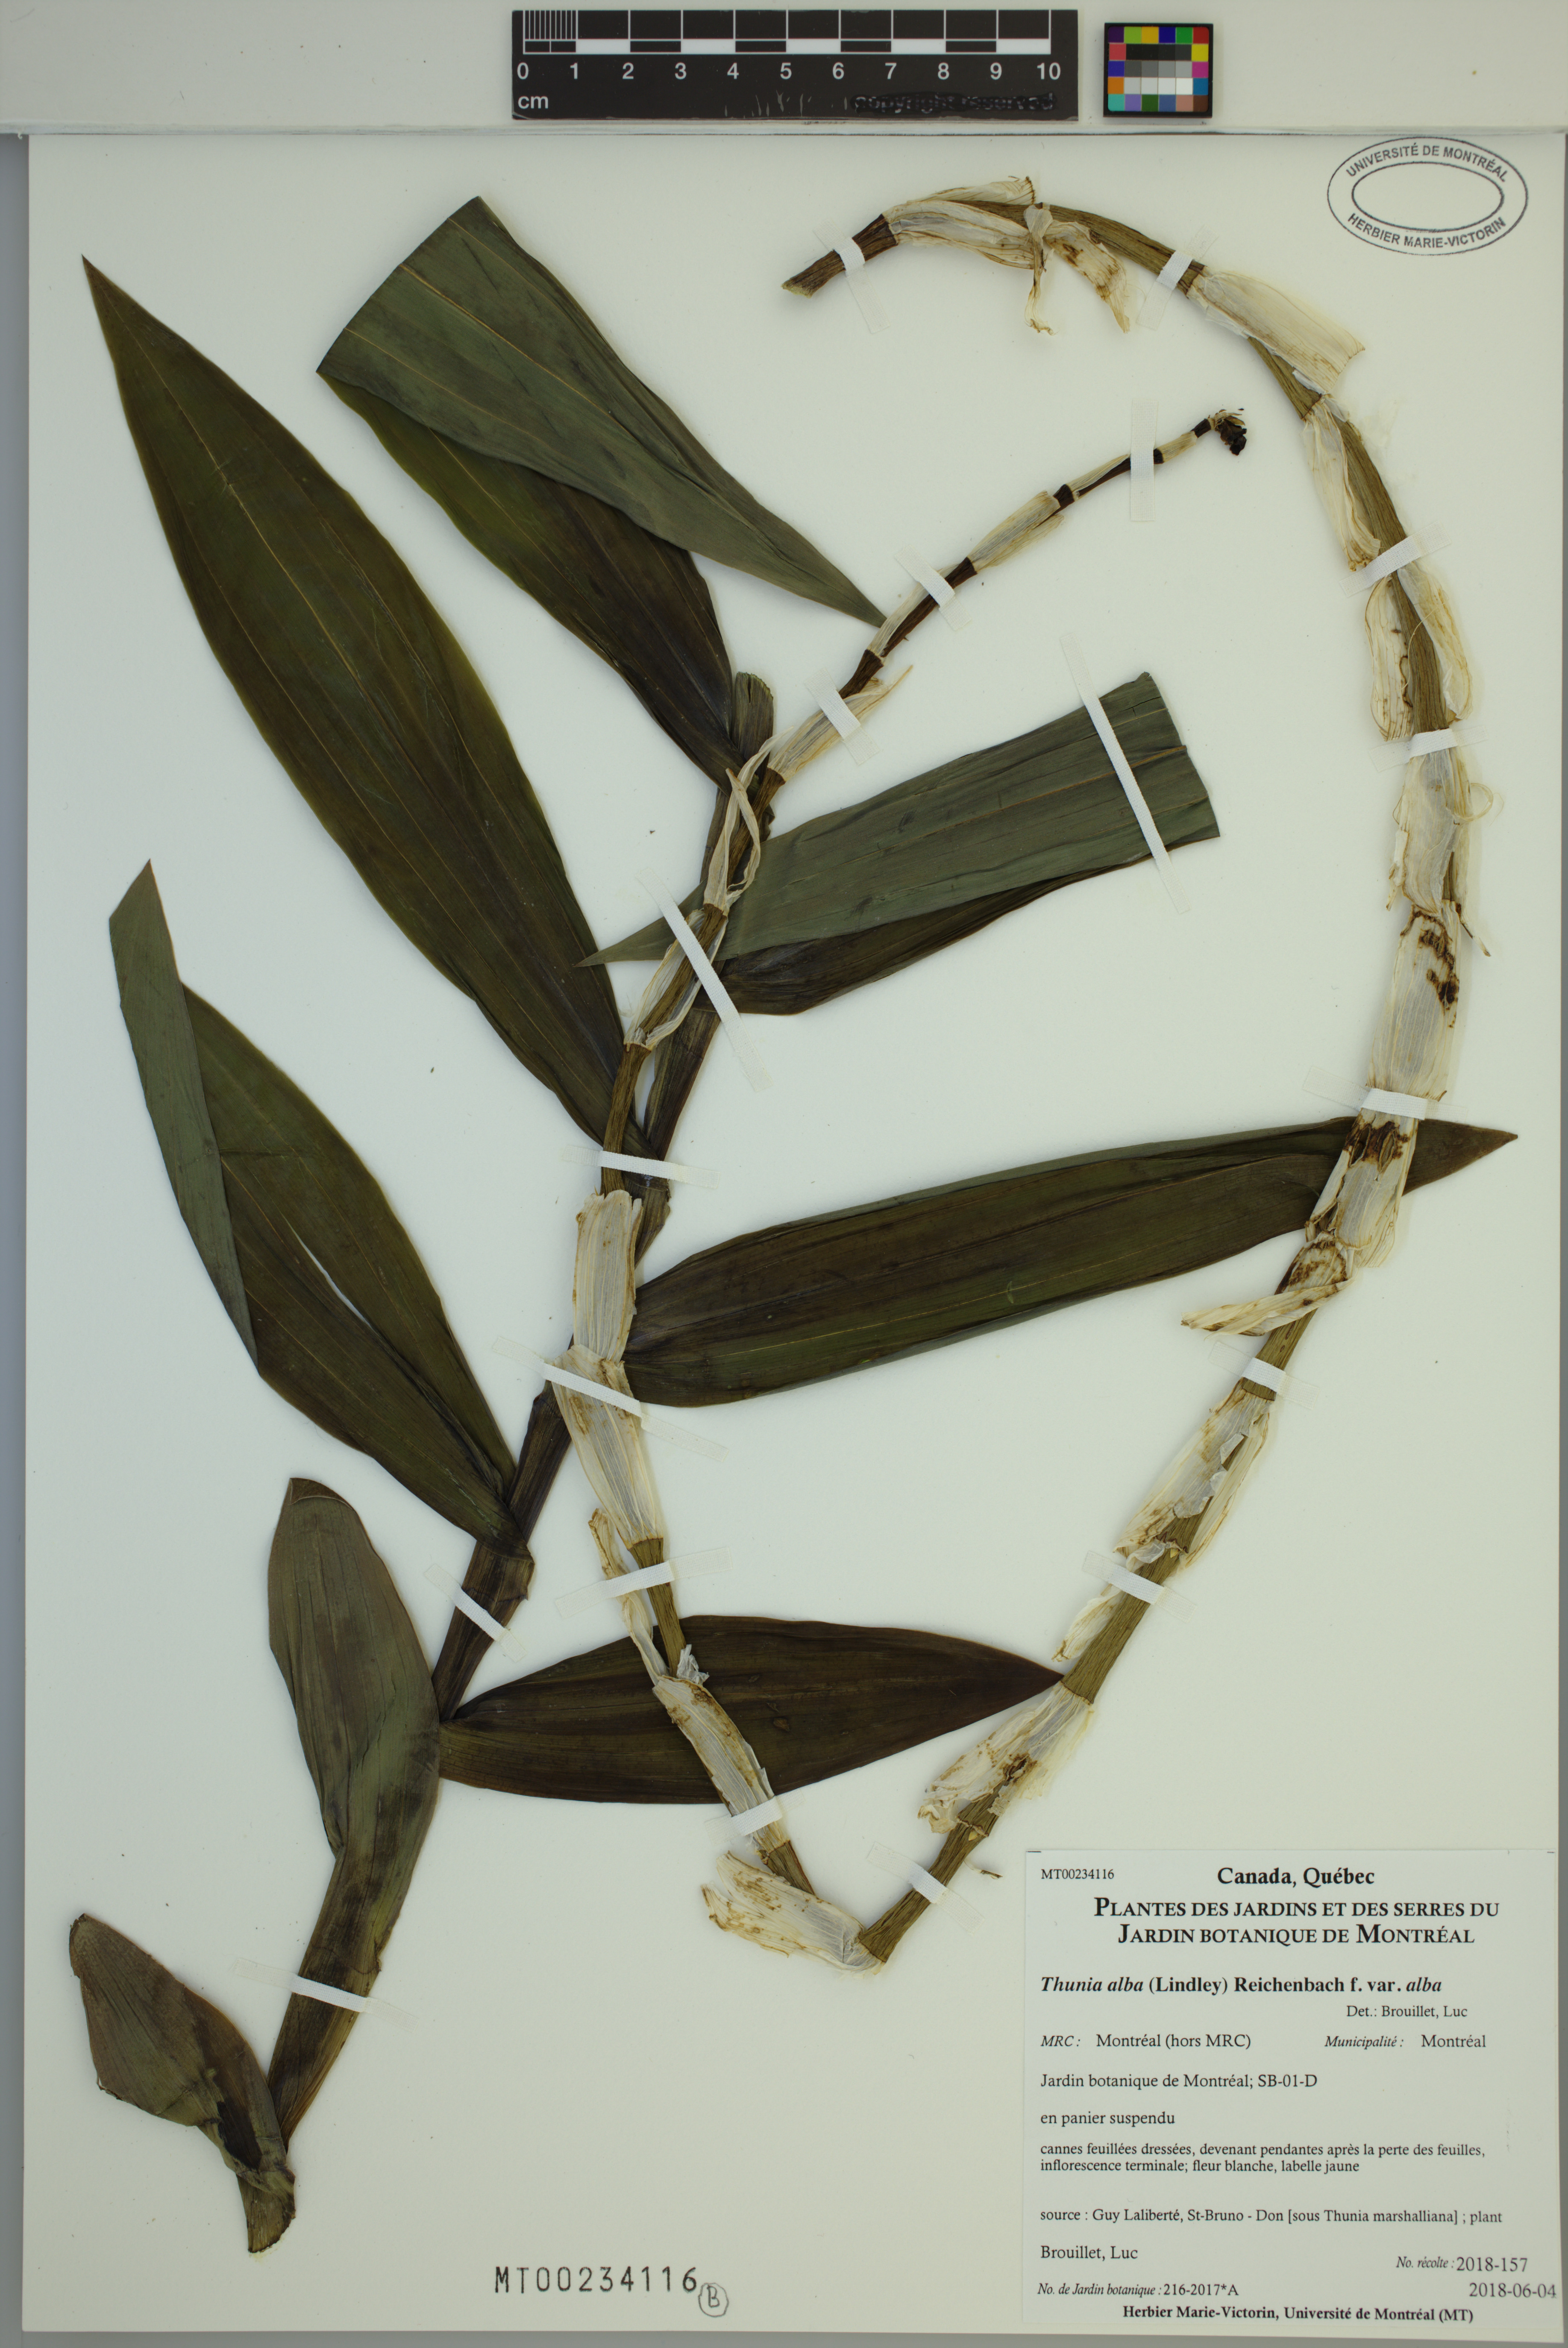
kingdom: Plantae
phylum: Tracheophyta
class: Liliopsida
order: Asparagales
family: Orchidaceae
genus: Thunia
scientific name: Thunia alba
